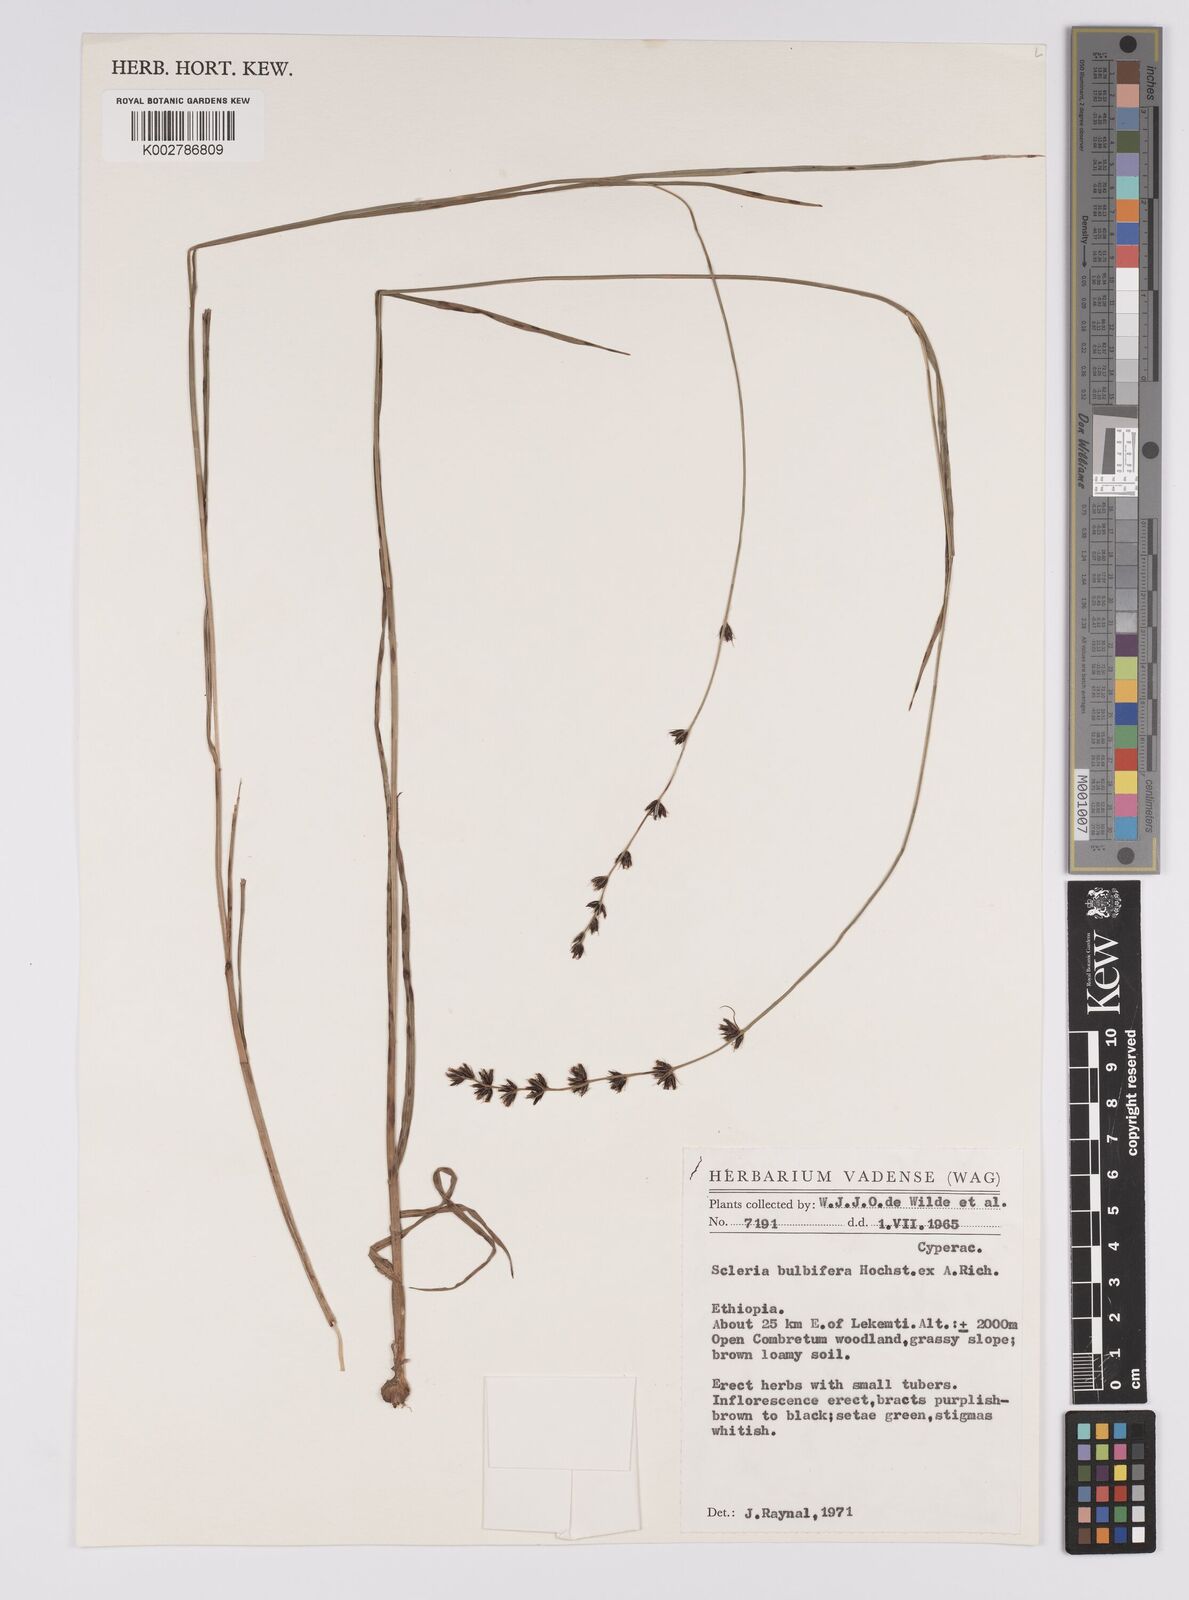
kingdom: Plantae
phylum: Tracheophyta
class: Liliopsida
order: Poales
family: Cyperaceae
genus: Scleria
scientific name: Scleria bulbifera
